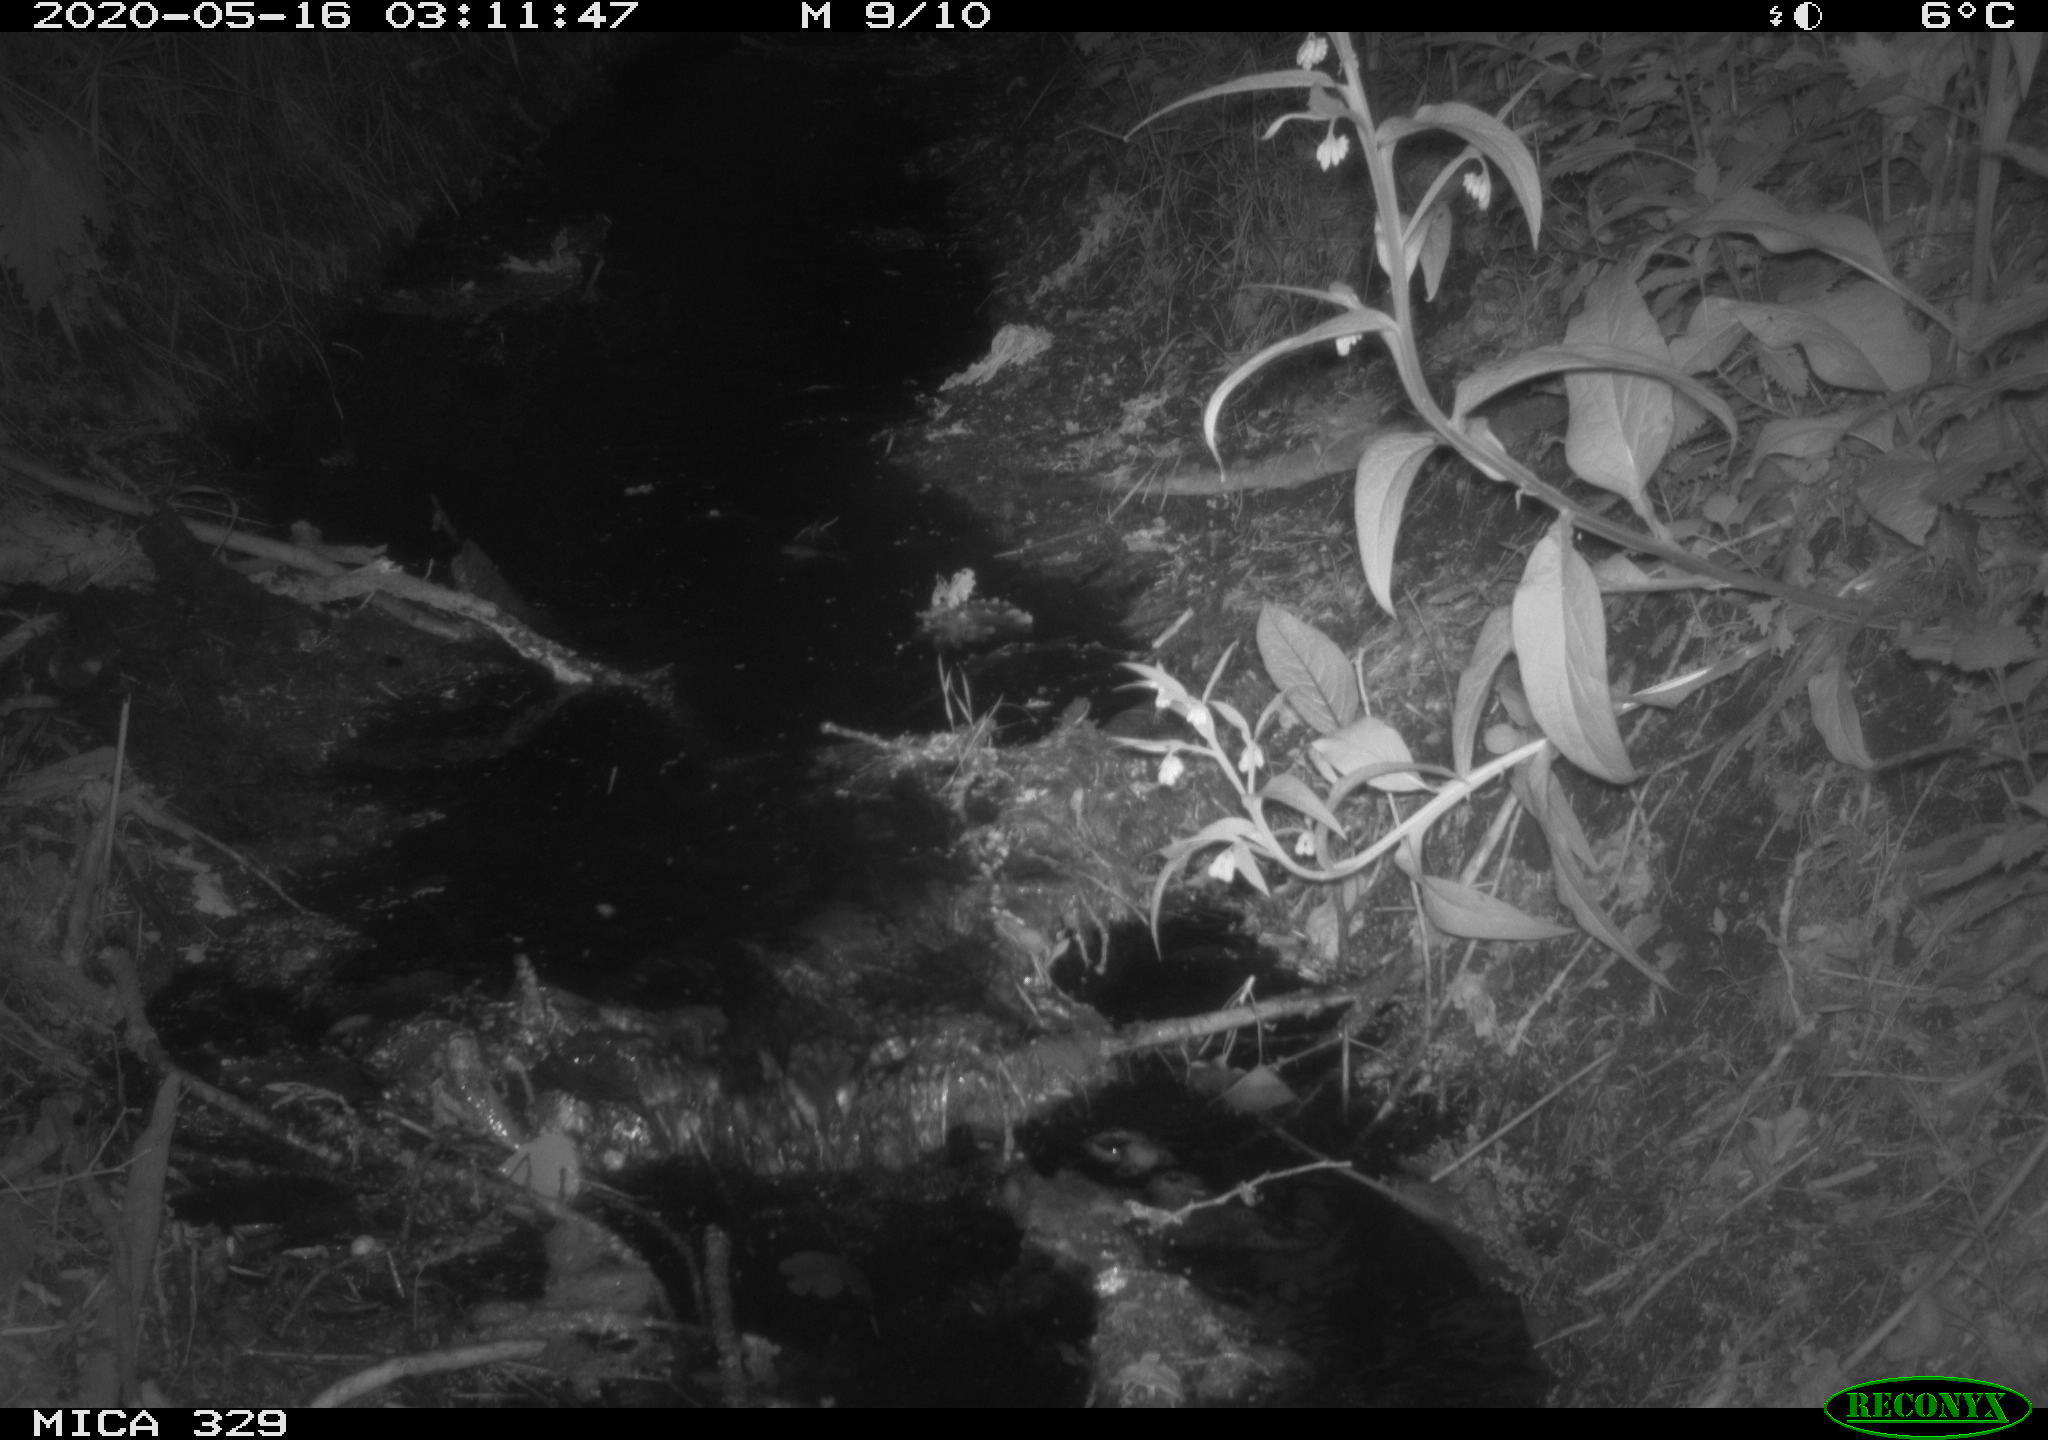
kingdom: Animalia
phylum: Chordata
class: Mammalia
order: Rodentia
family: Cricetidae
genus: Ondatra
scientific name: Ondatra zibethicus
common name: Muskrat
